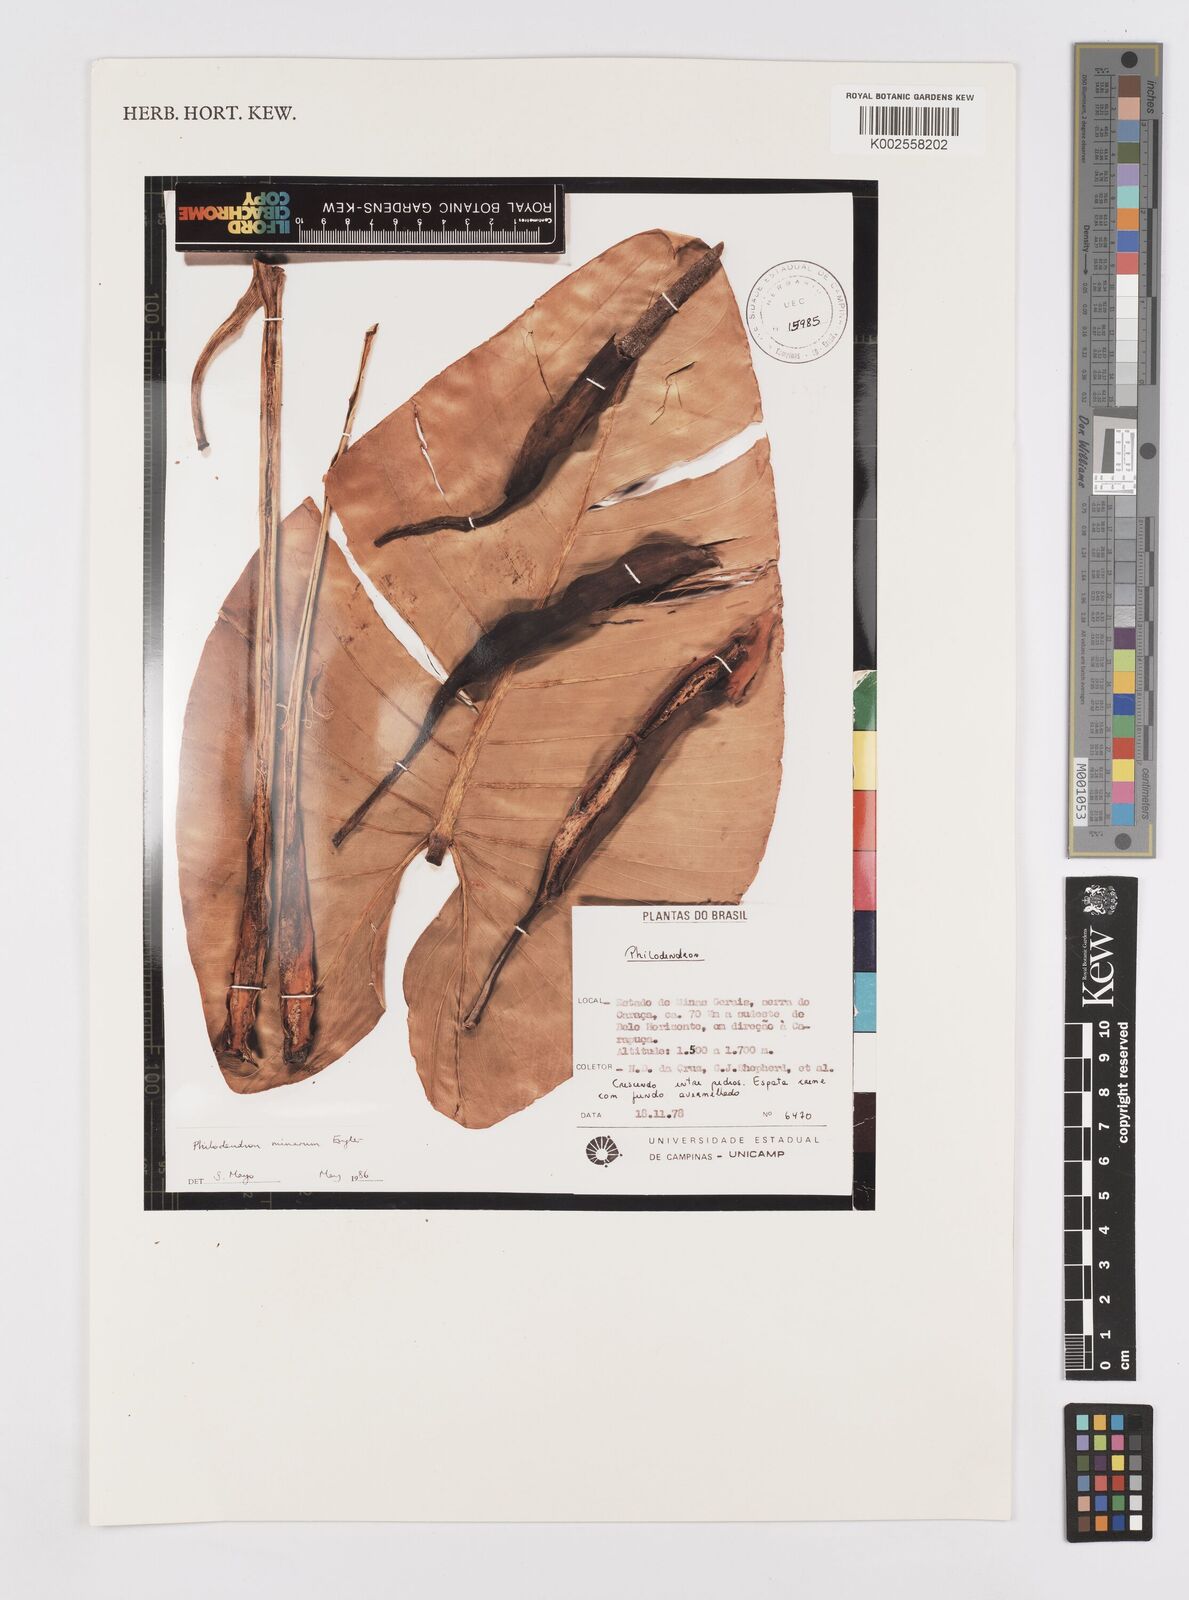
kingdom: Plantae
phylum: Tracheophyta
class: Liliopsida
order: Alismatales
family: Araceae
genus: Philodendron
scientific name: Philodendron minarum
